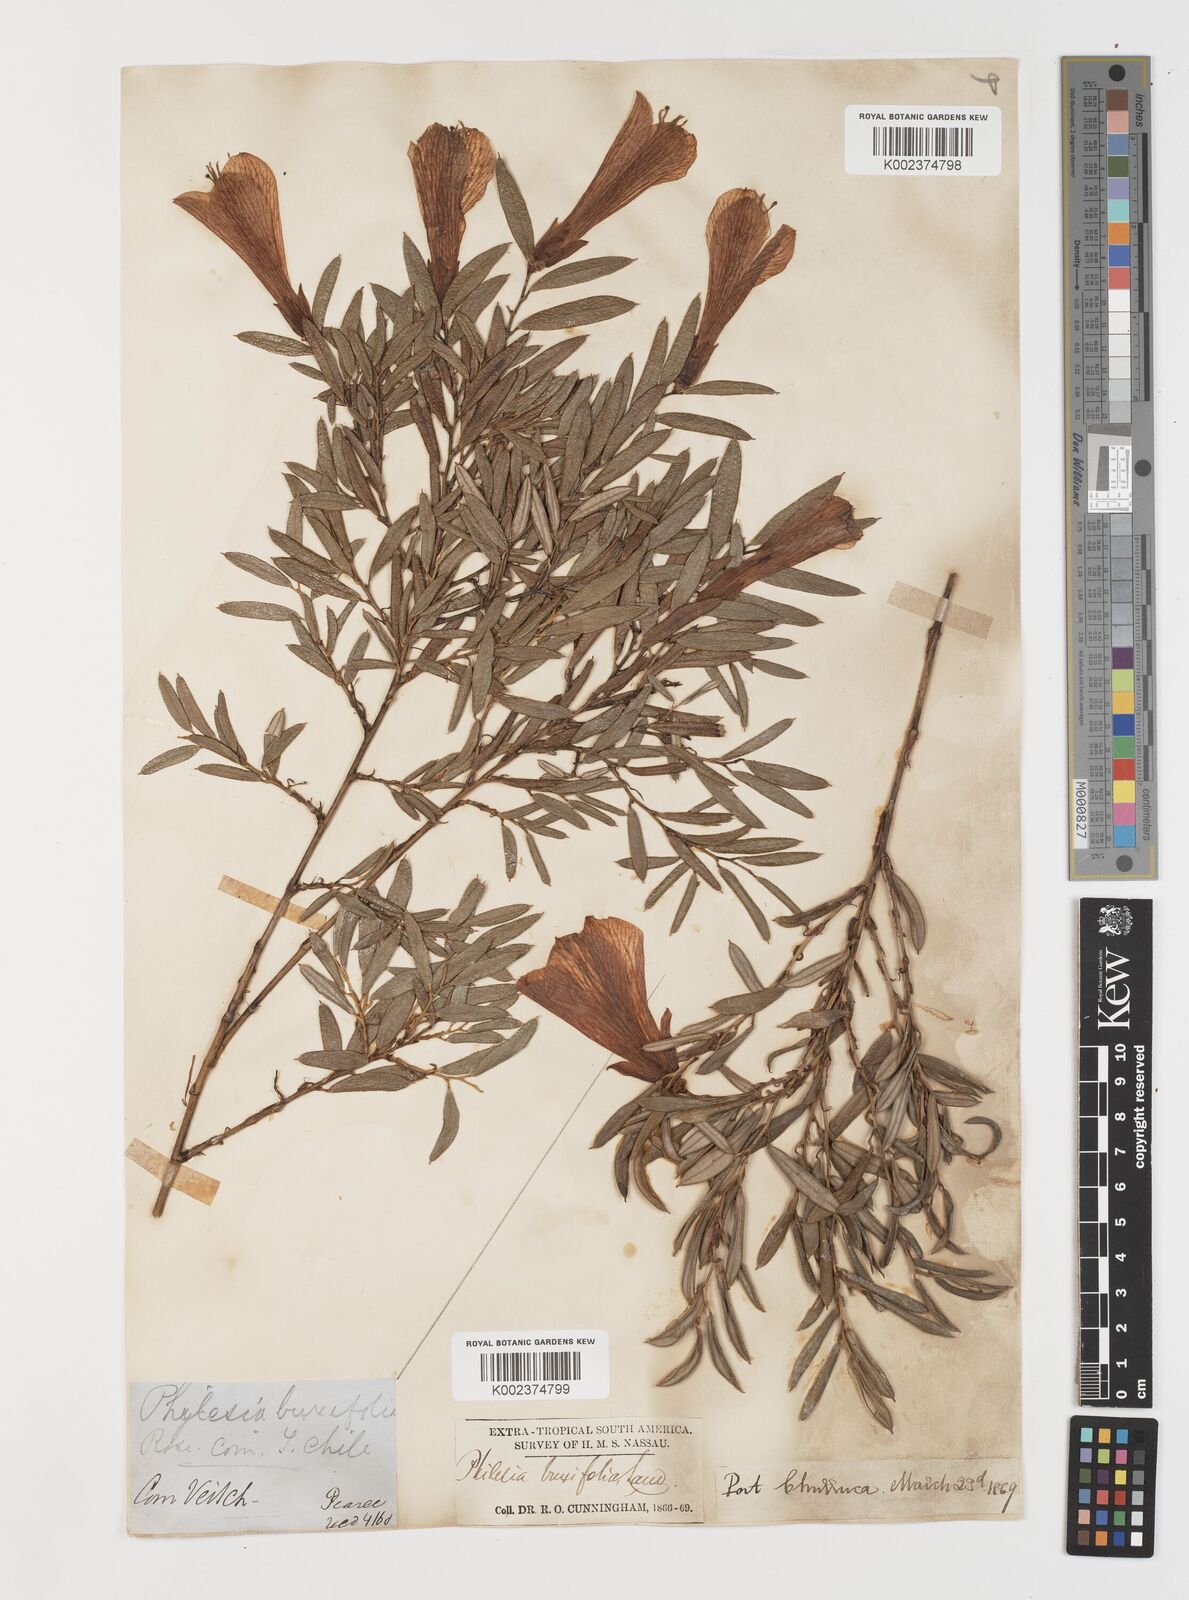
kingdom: Plantae
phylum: Tracheophyta
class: Liliopsida
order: Liliales
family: Philesiaceae
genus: Philesia
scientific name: Philesia magellanica
